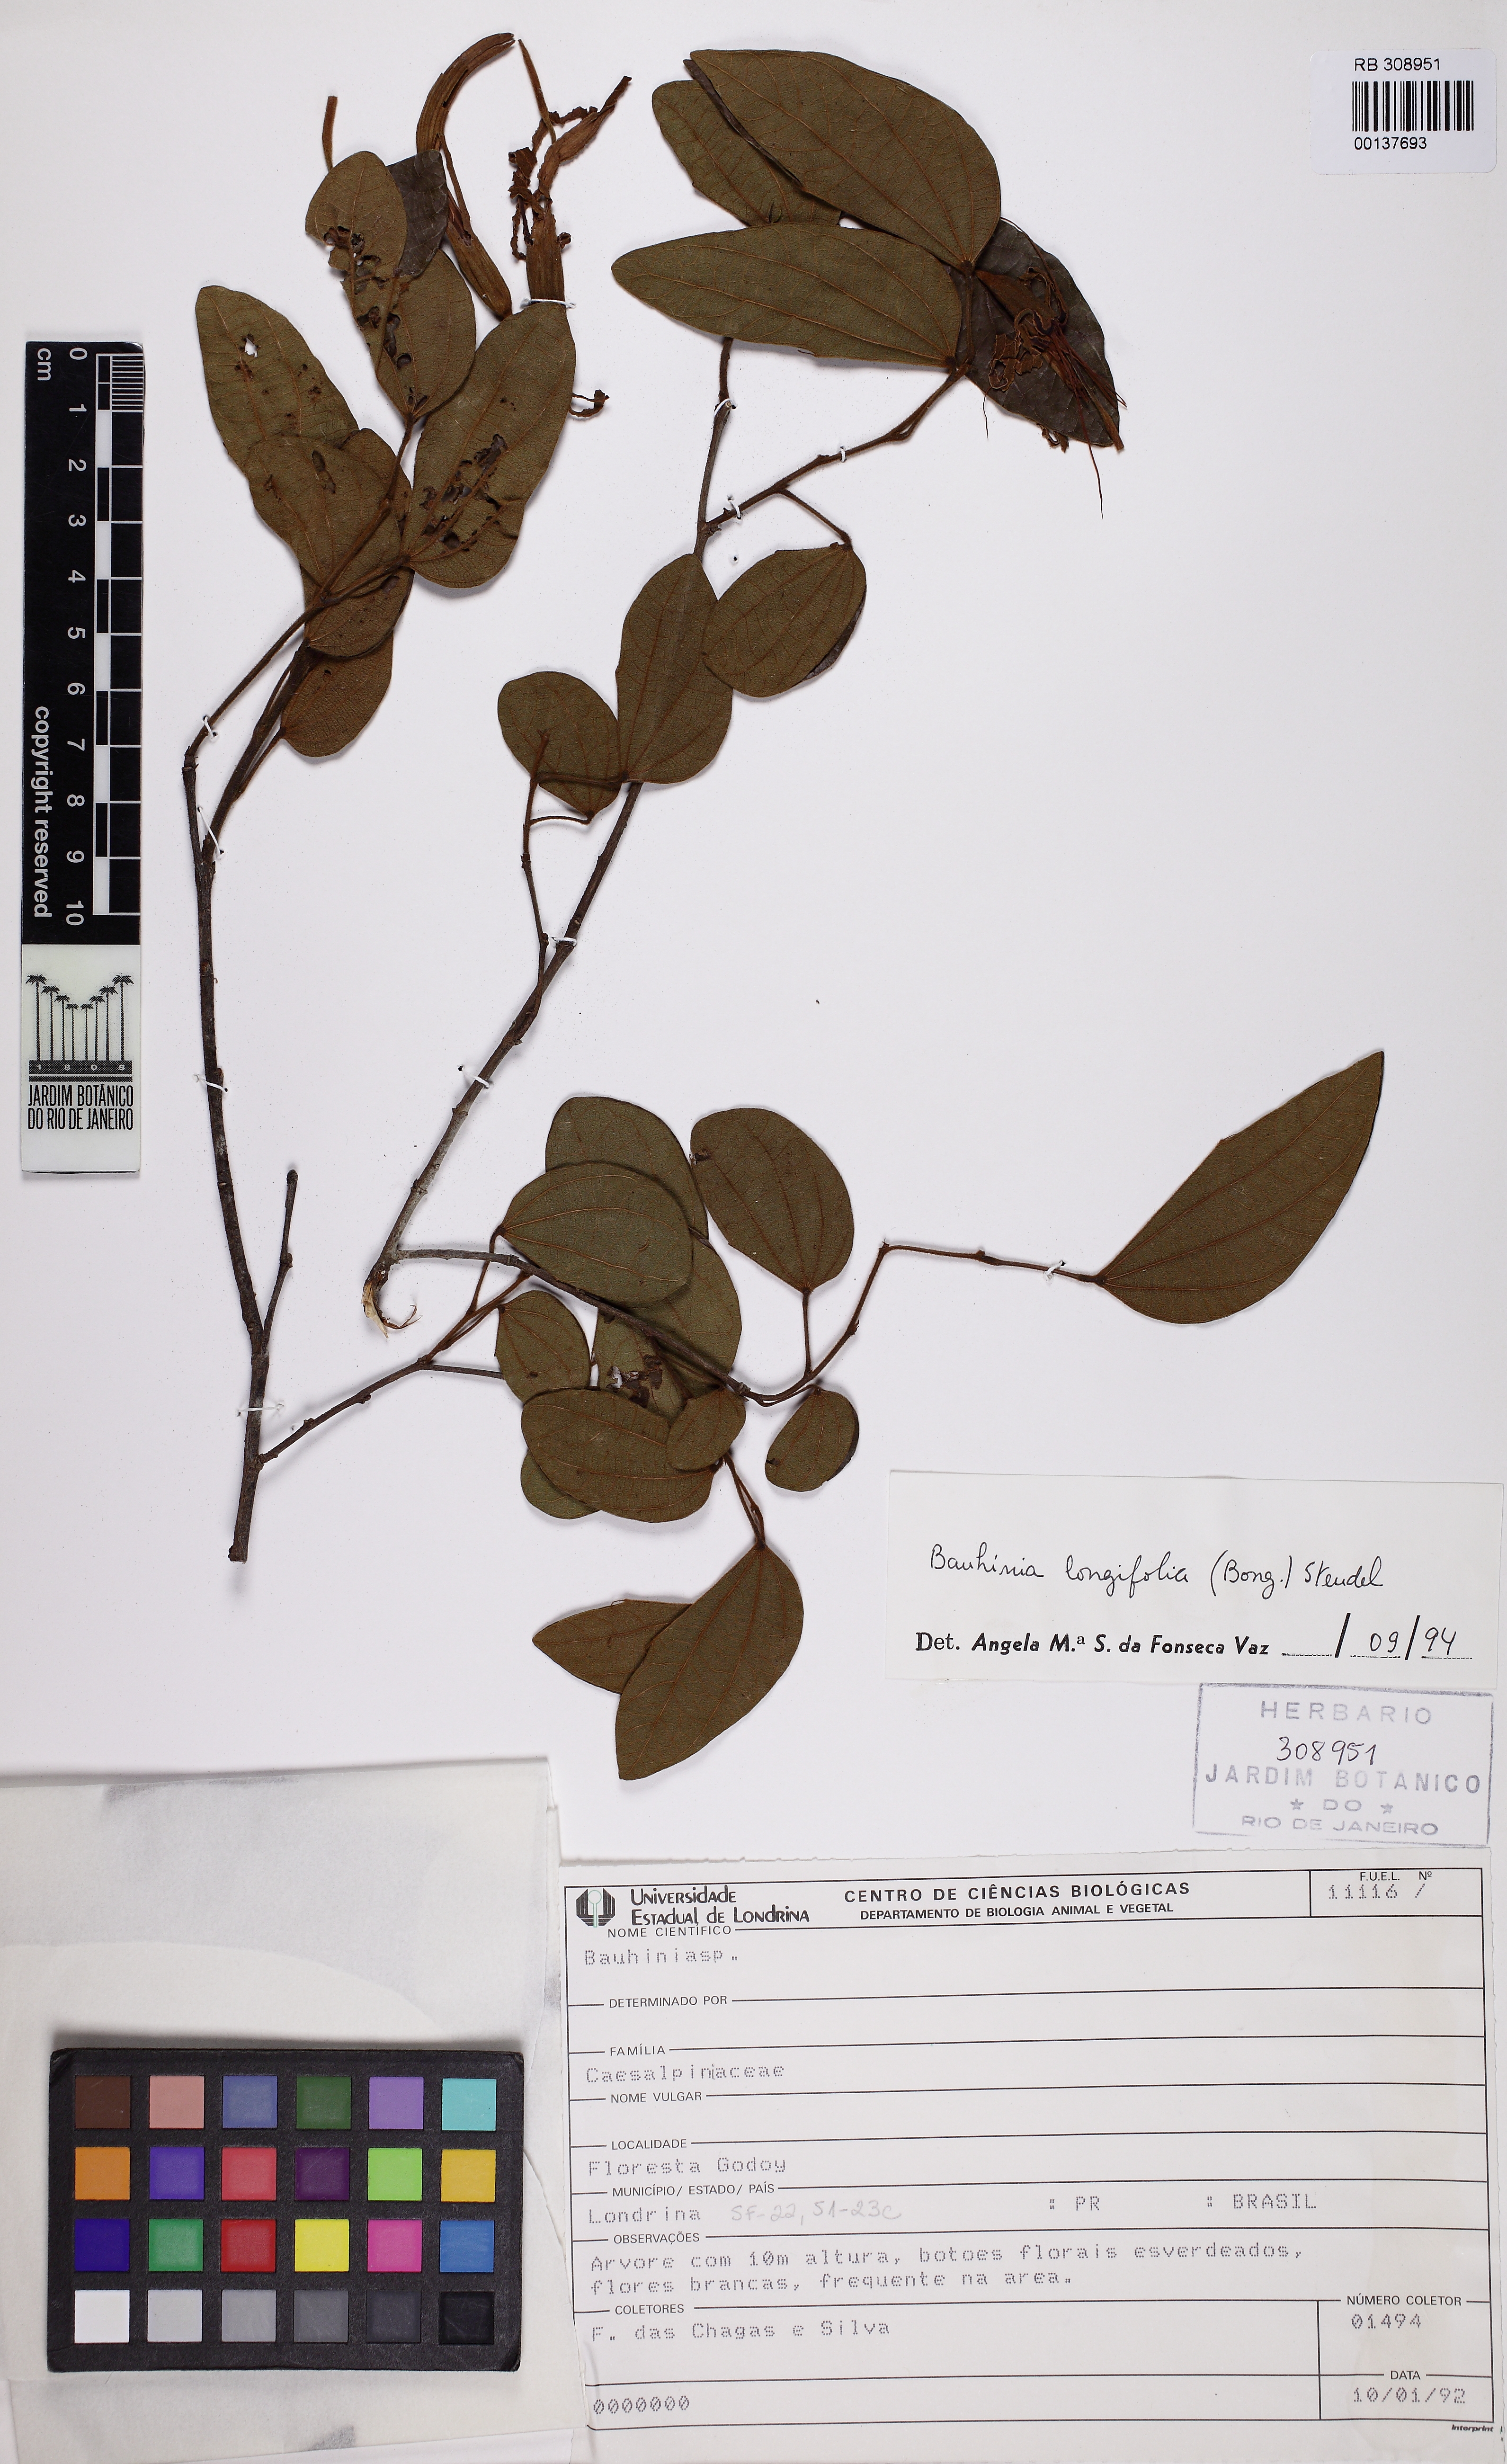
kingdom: Plantae
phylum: Tracheophyta
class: Magnoliopsida
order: Fabales
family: Fabaceae
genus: Bauhinia
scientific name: Bauhinia longifolia
